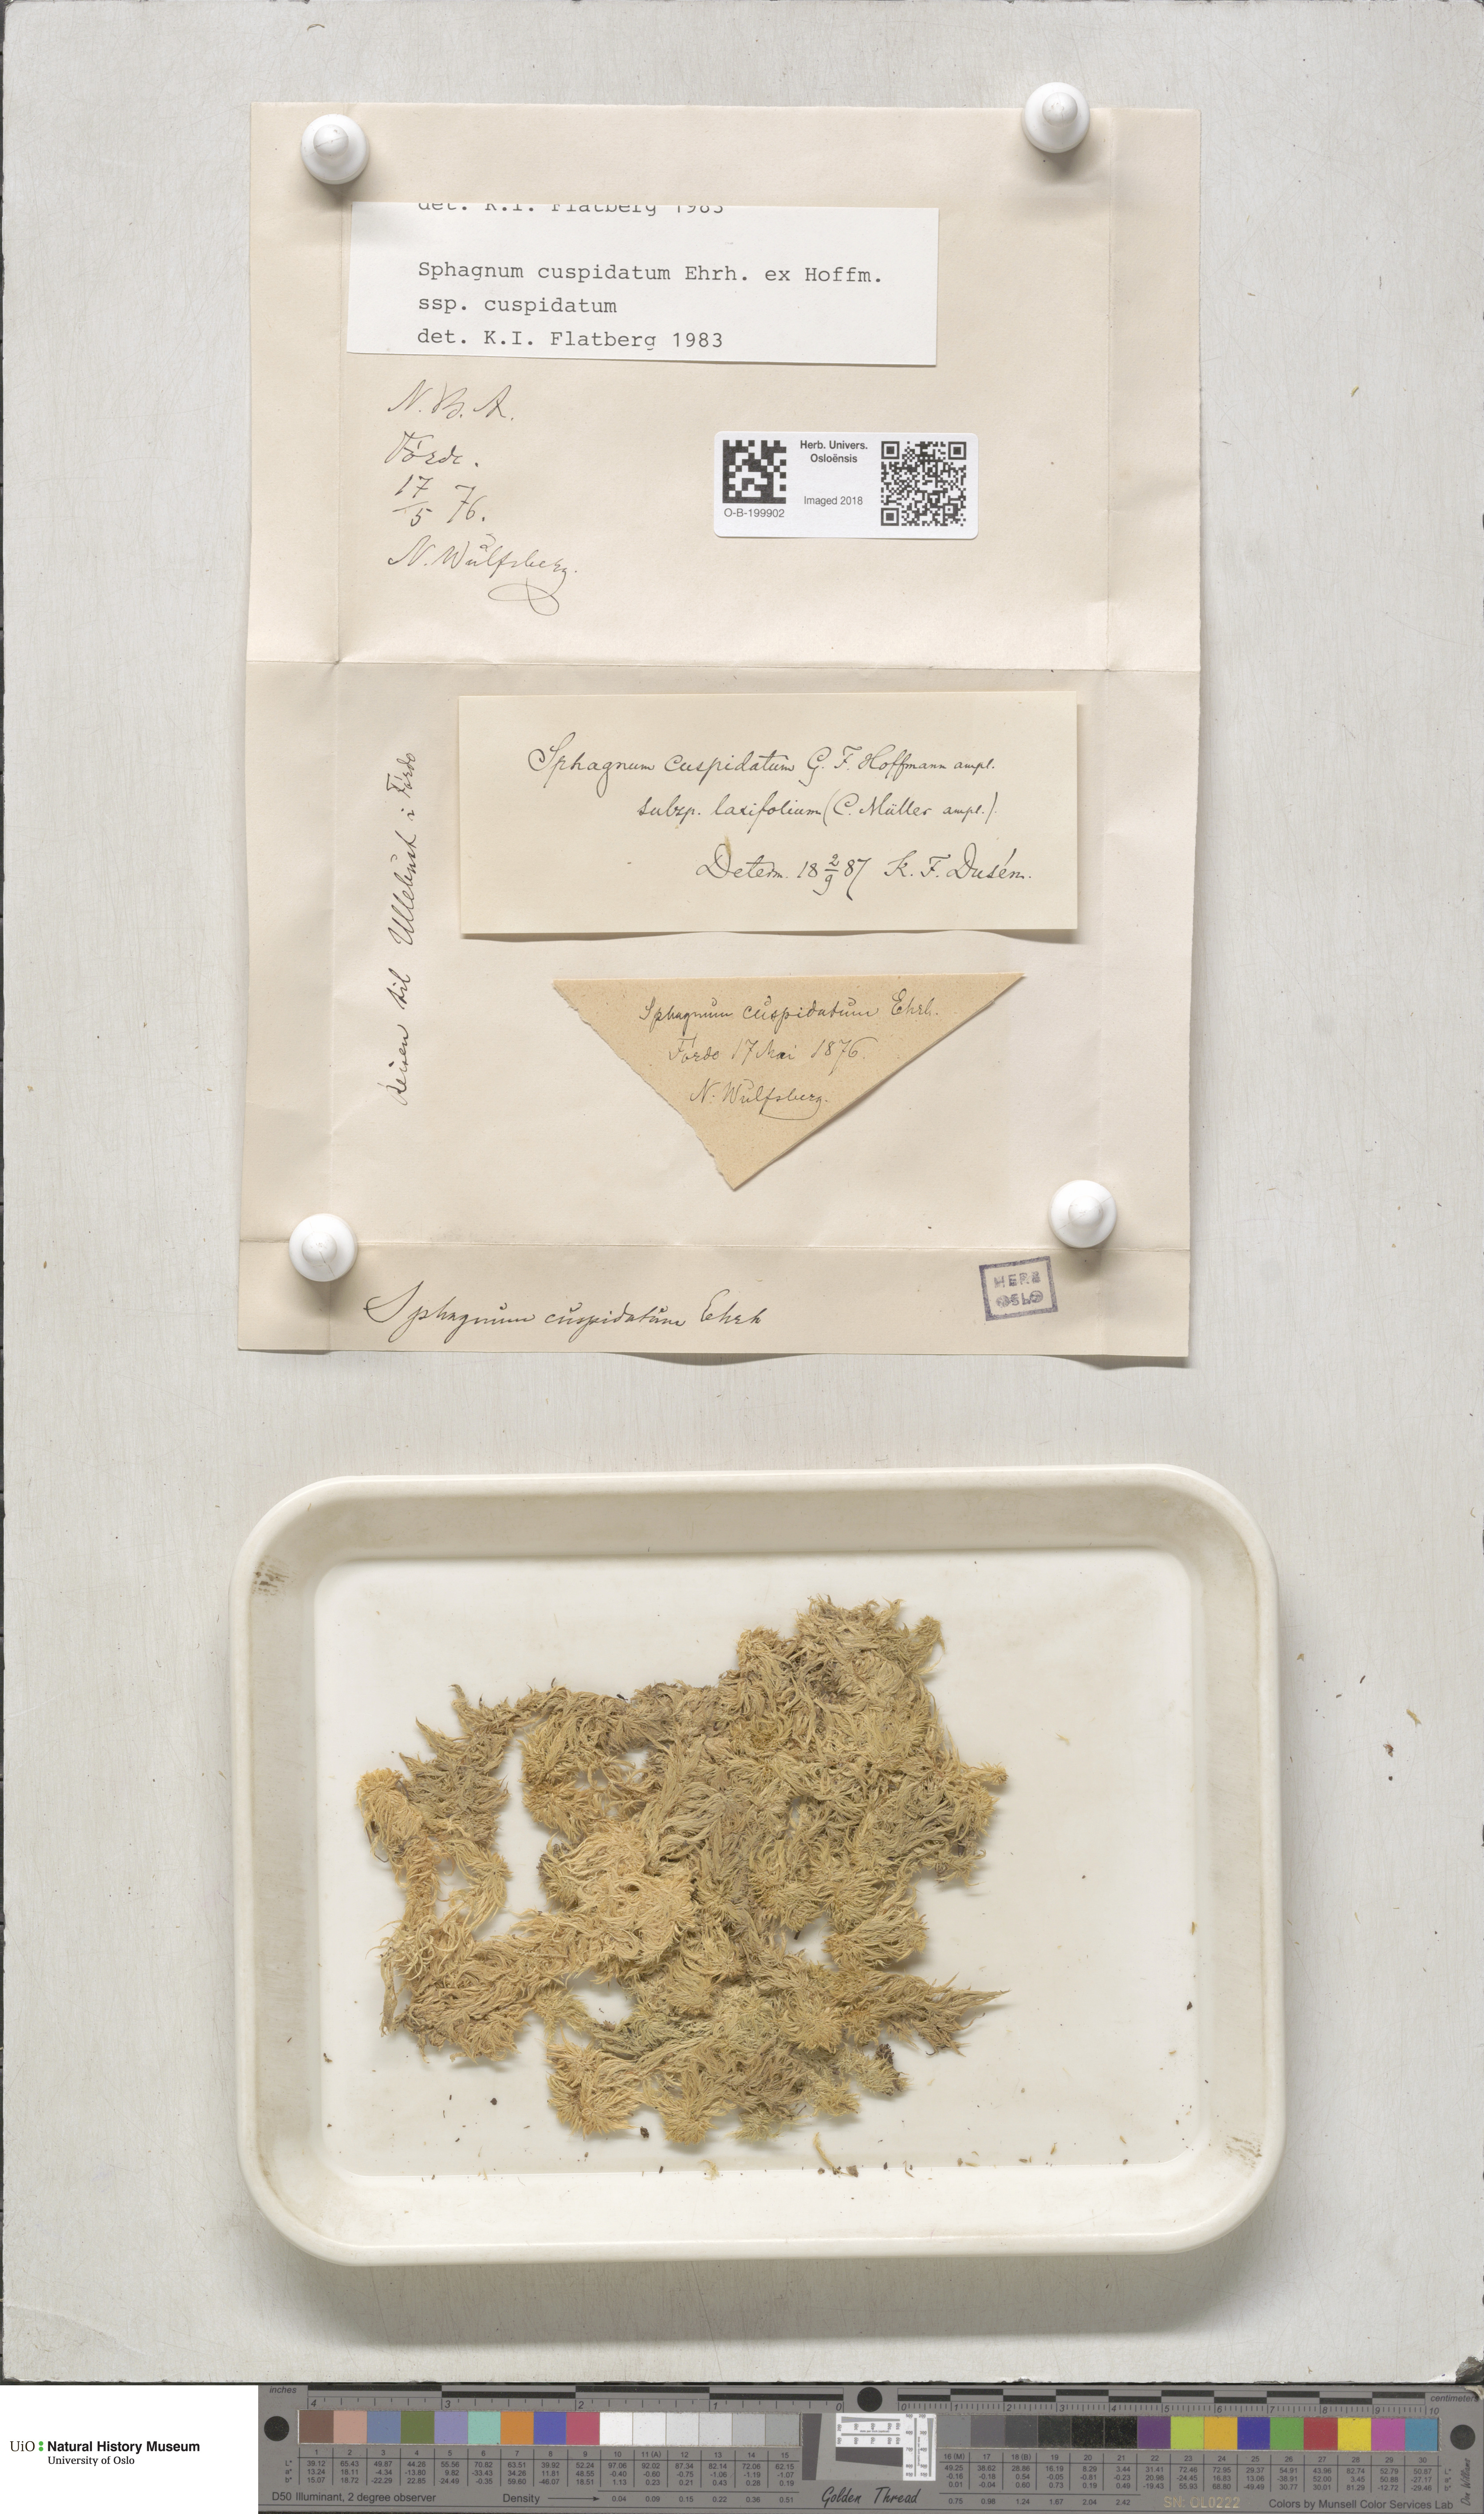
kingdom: Plantae
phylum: Bryophyta
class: Sphagnopsida
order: Sphagnales
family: Sphagnaceae
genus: Sphagnum
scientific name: Sphagnum cuspidatum
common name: Feathery peat moss
